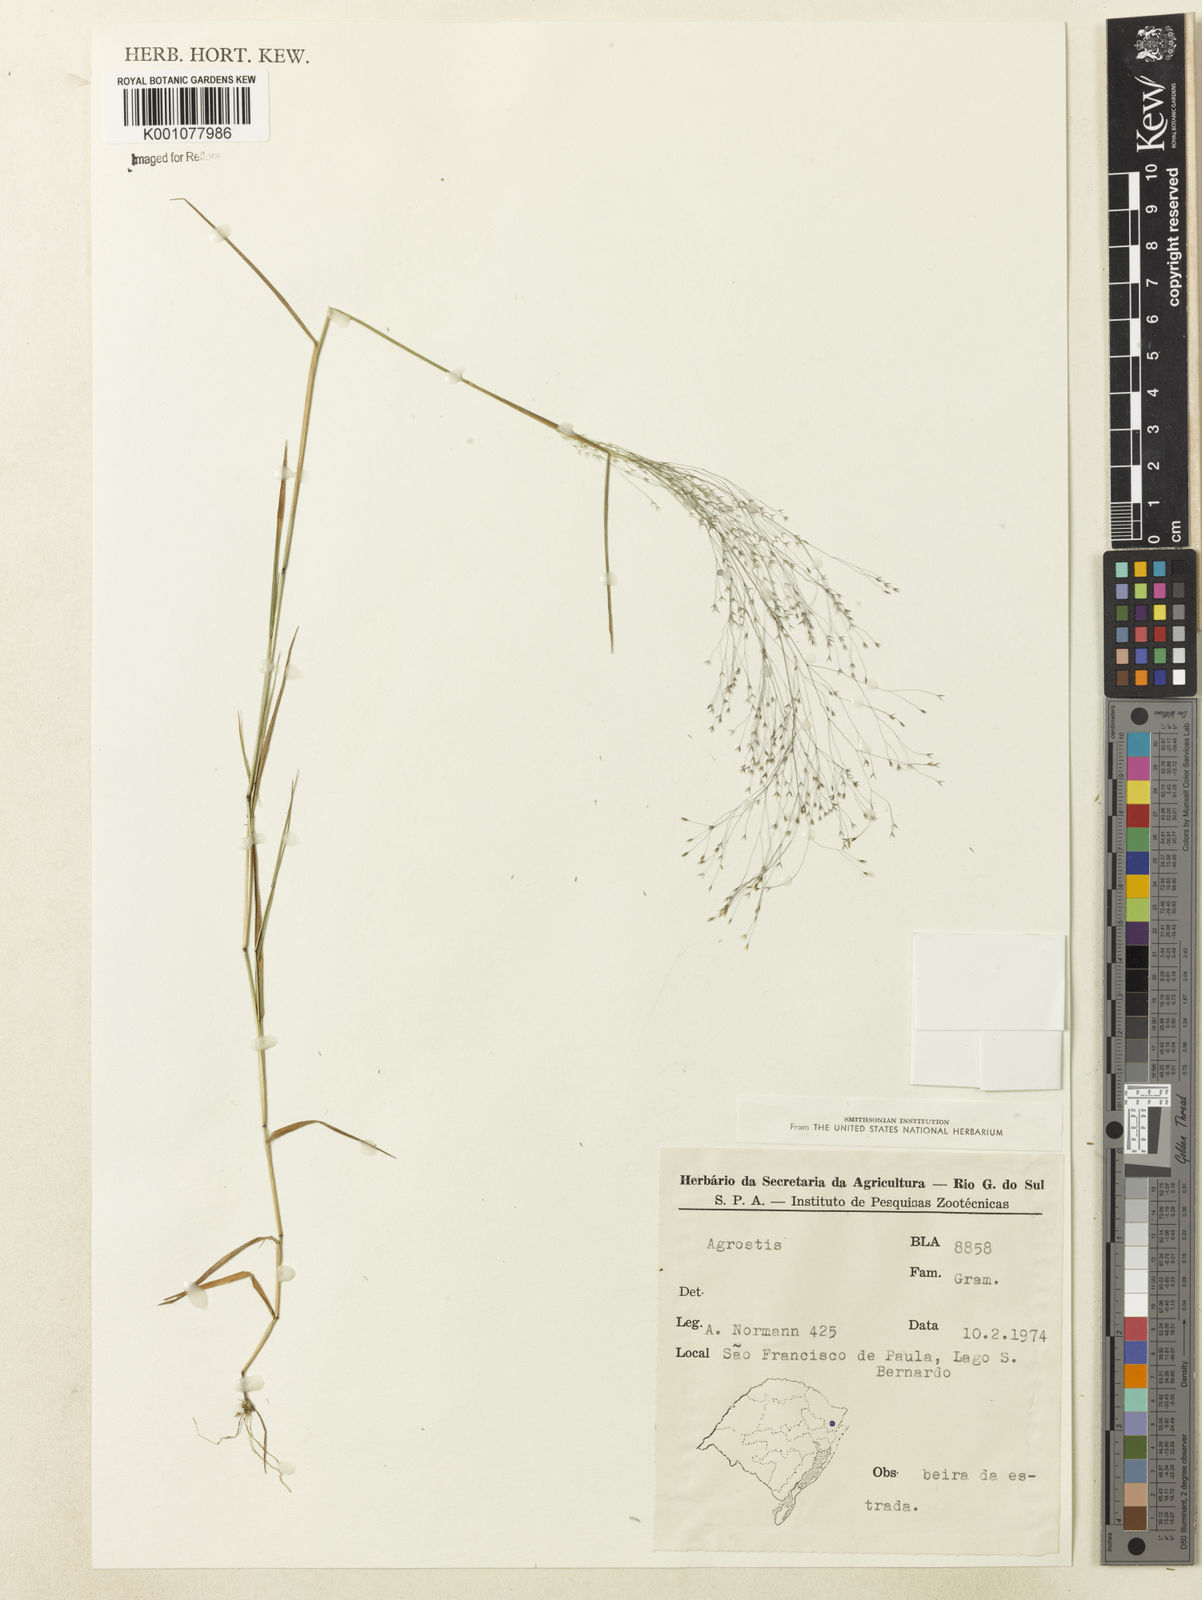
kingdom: Plantae
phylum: Tracheophyta
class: Liliopsida
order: Poales
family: Poaceae
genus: Agrostis
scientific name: Agrostis montevidensis
